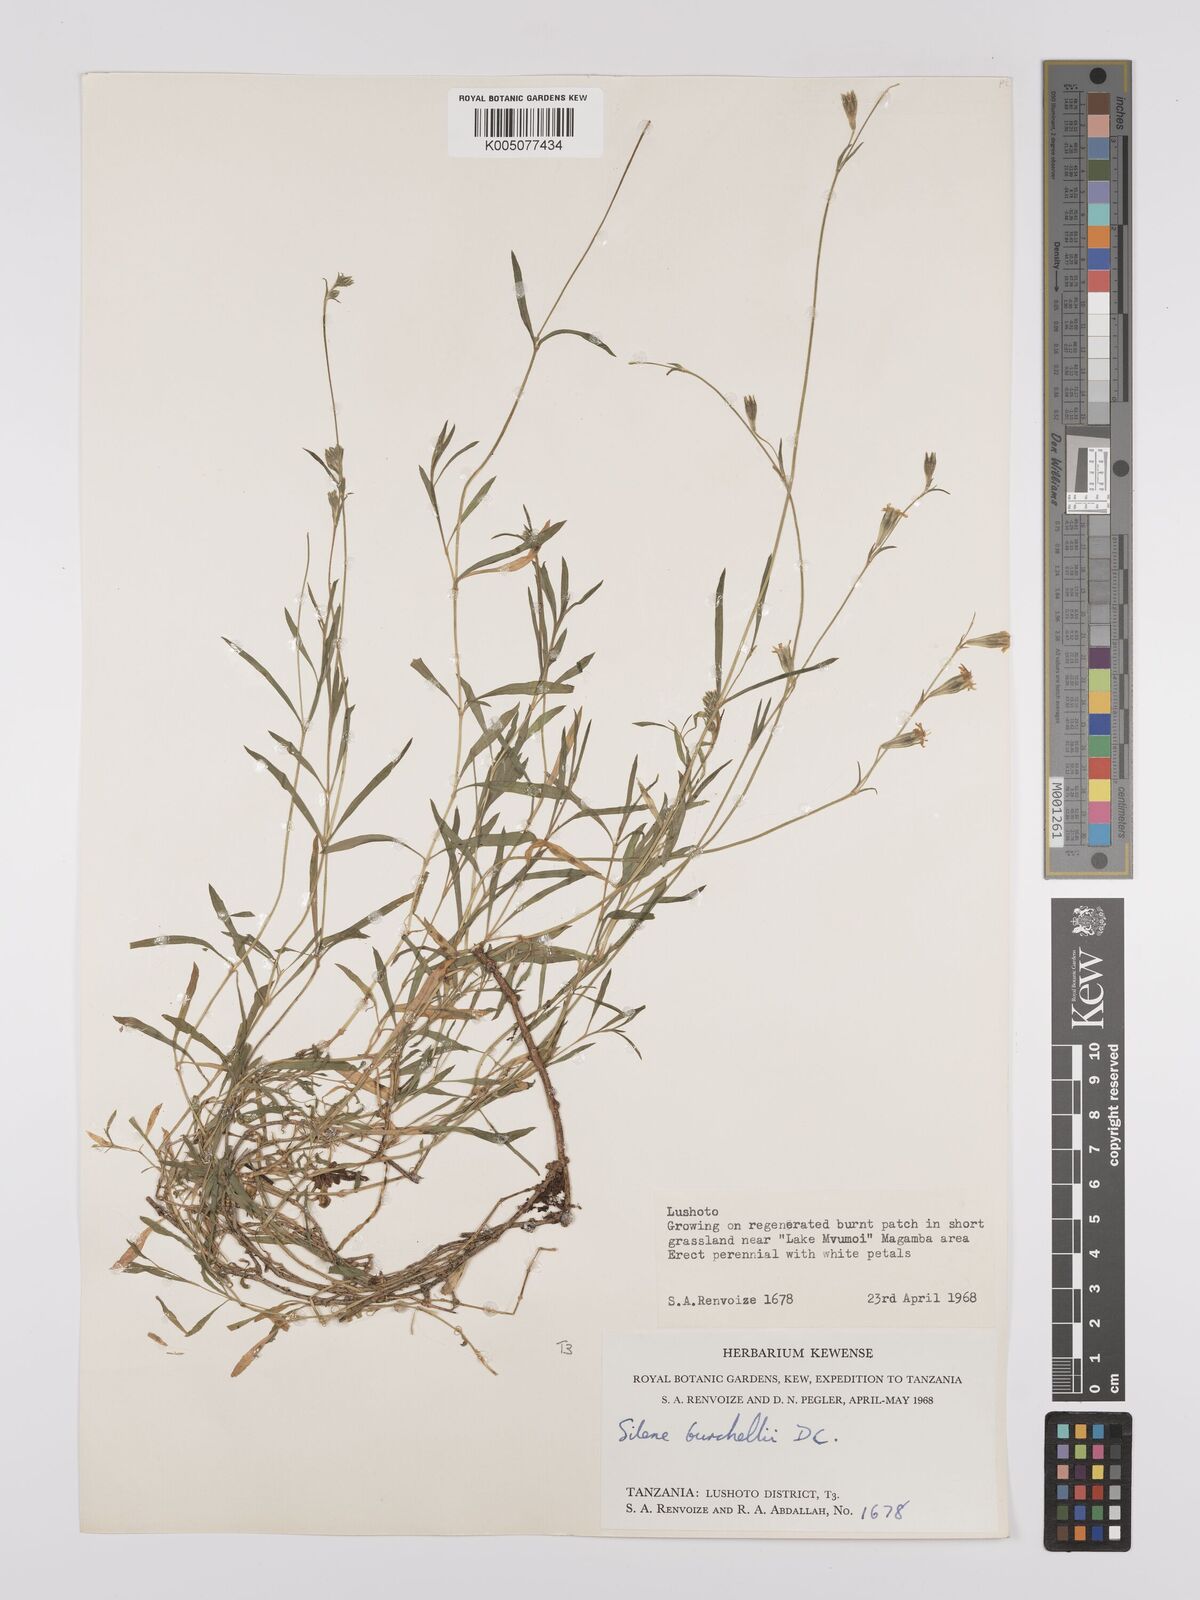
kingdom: Plantae
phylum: Tracheophyta
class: Magnoliopsida
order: Caryophyllales
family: Caryophyllaceae
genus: Silene
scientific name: Silene burchellii
